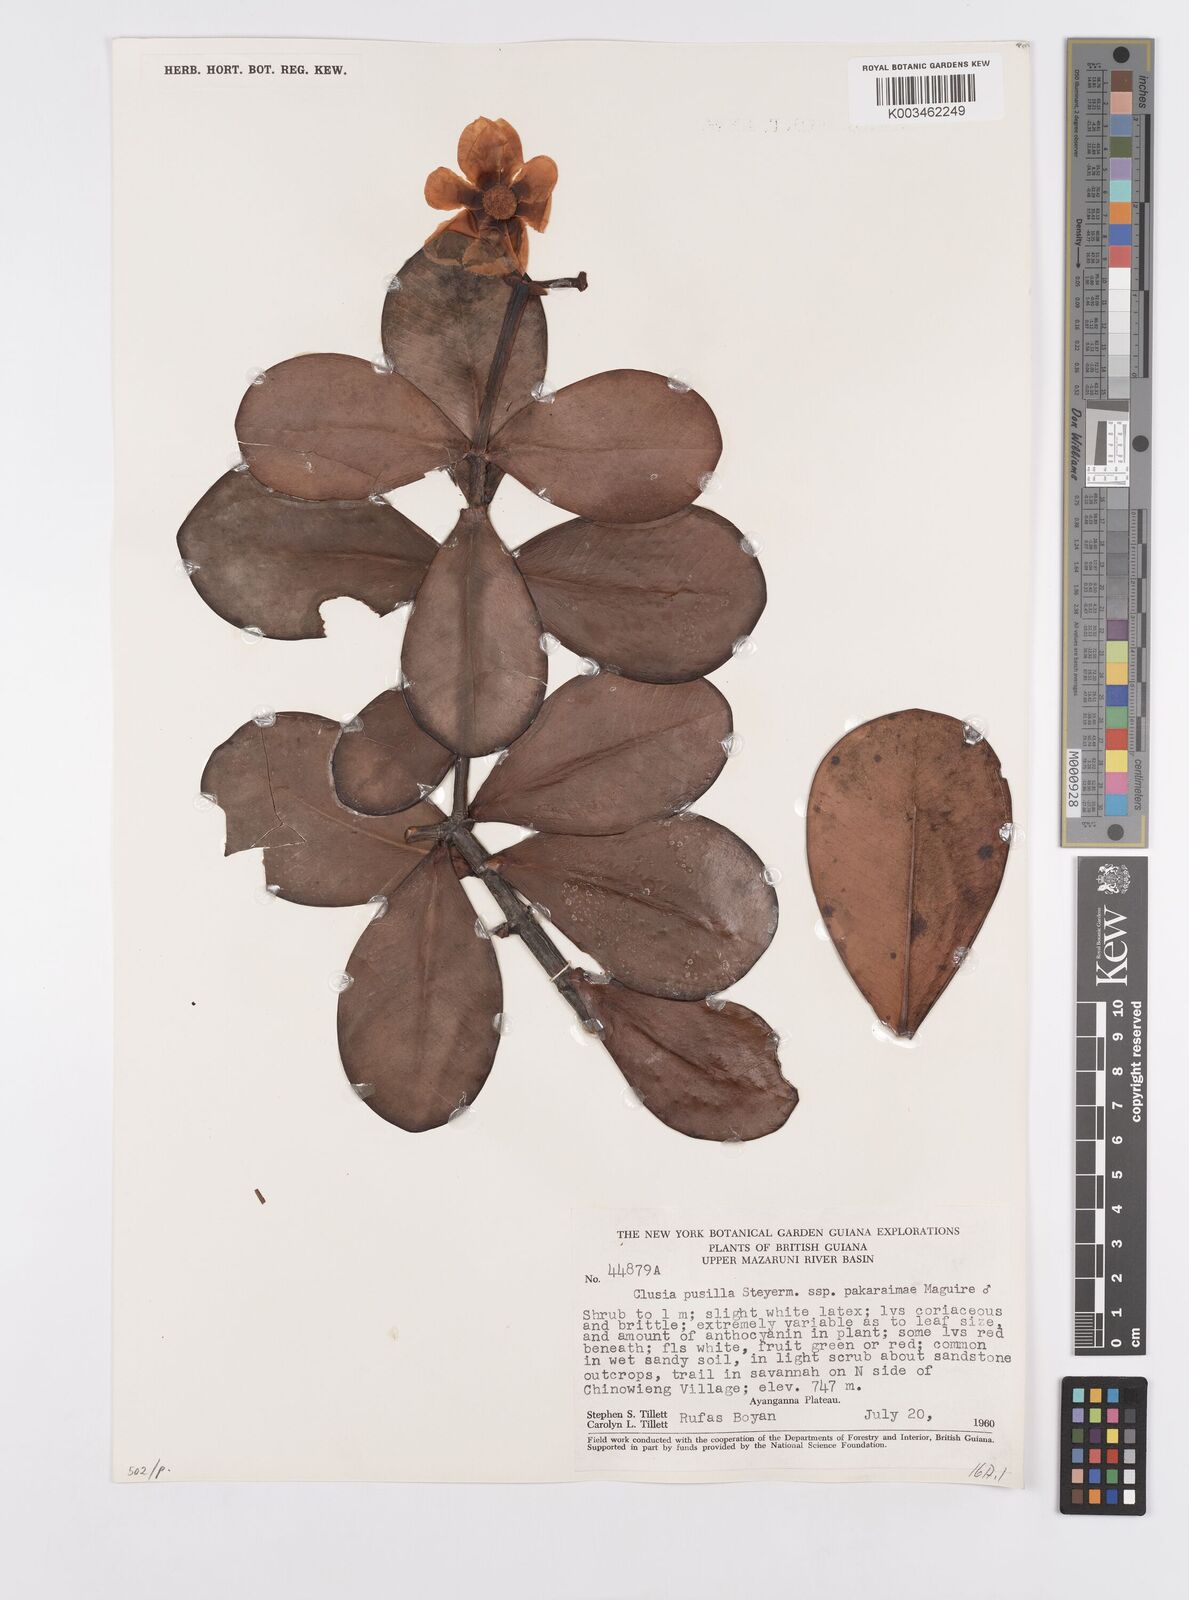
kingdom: Plantae
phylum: Tracheophyta
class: Magnoliopsida
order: Malpighiales
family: Clusiaceae
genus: Clusia
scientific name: Clusia pusilla
